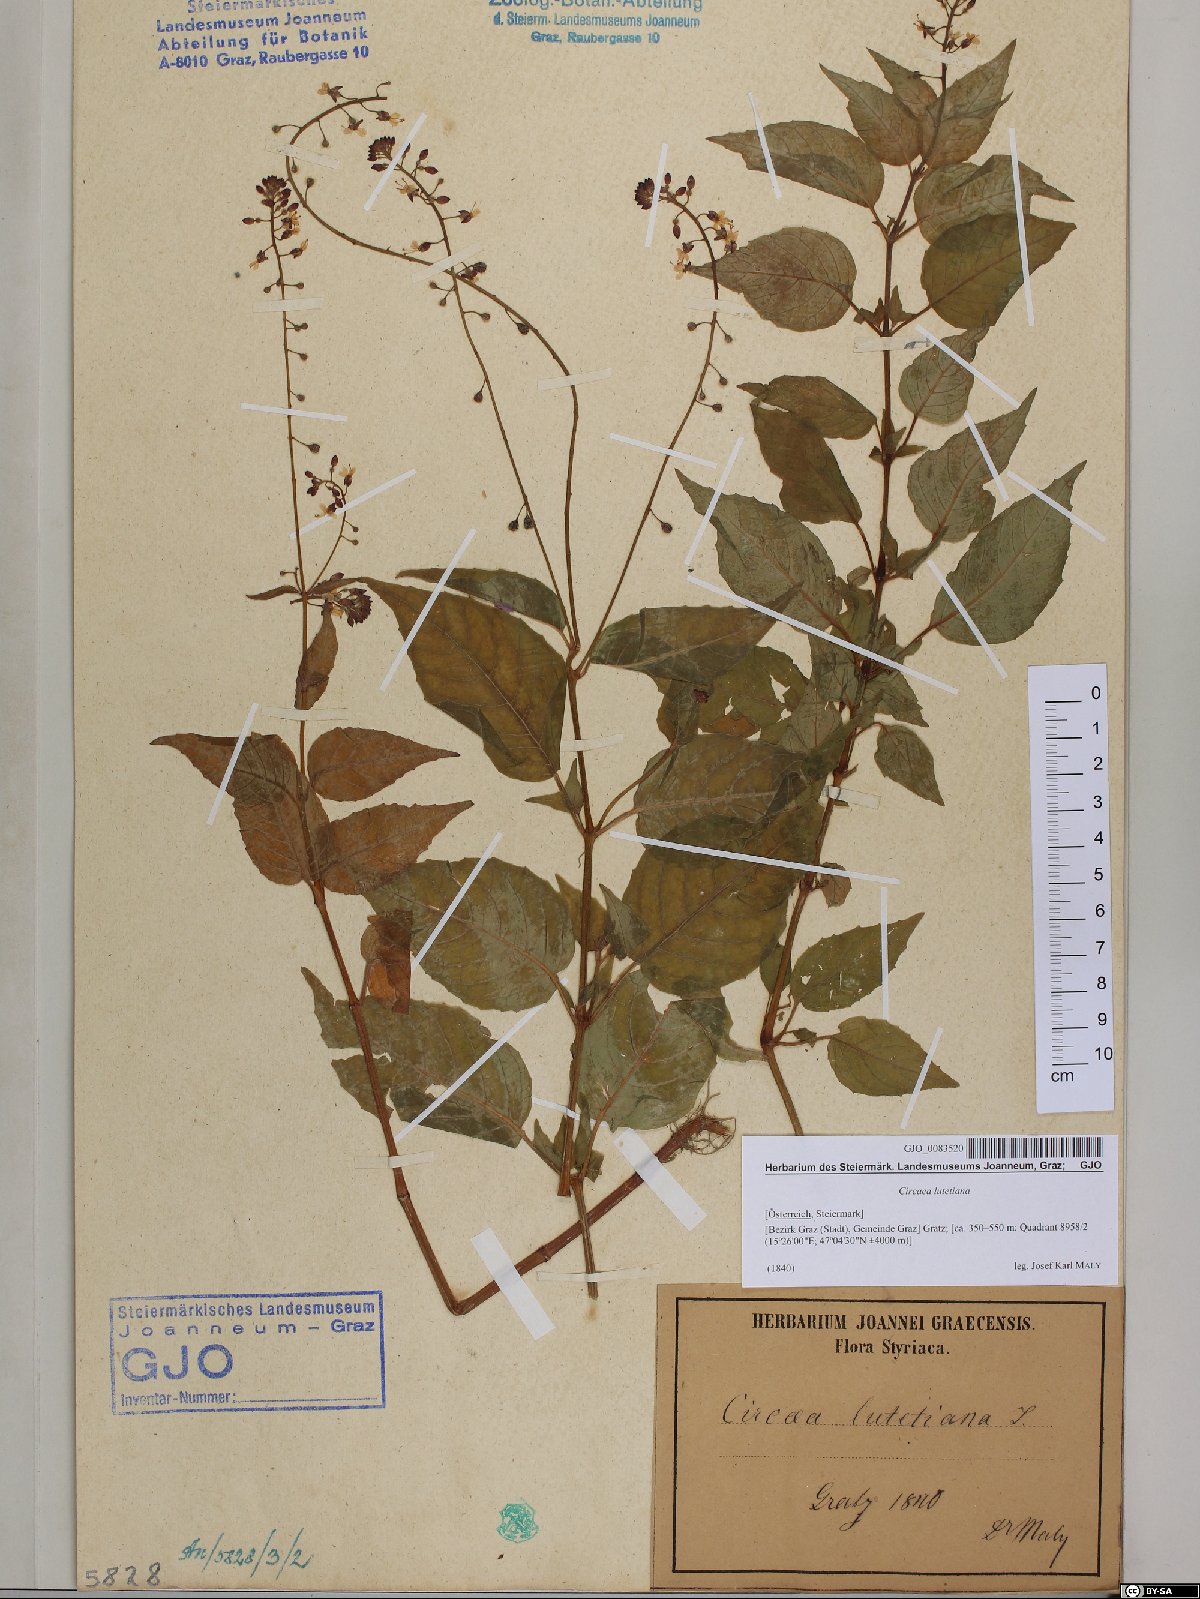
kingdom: Plantae
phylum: Tracheophyta
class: Magnoliopsida
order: Myrtales
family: Onagraceae
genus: Circaea
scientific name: Circaea lutetiana
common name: Enchanter's-nightshade
